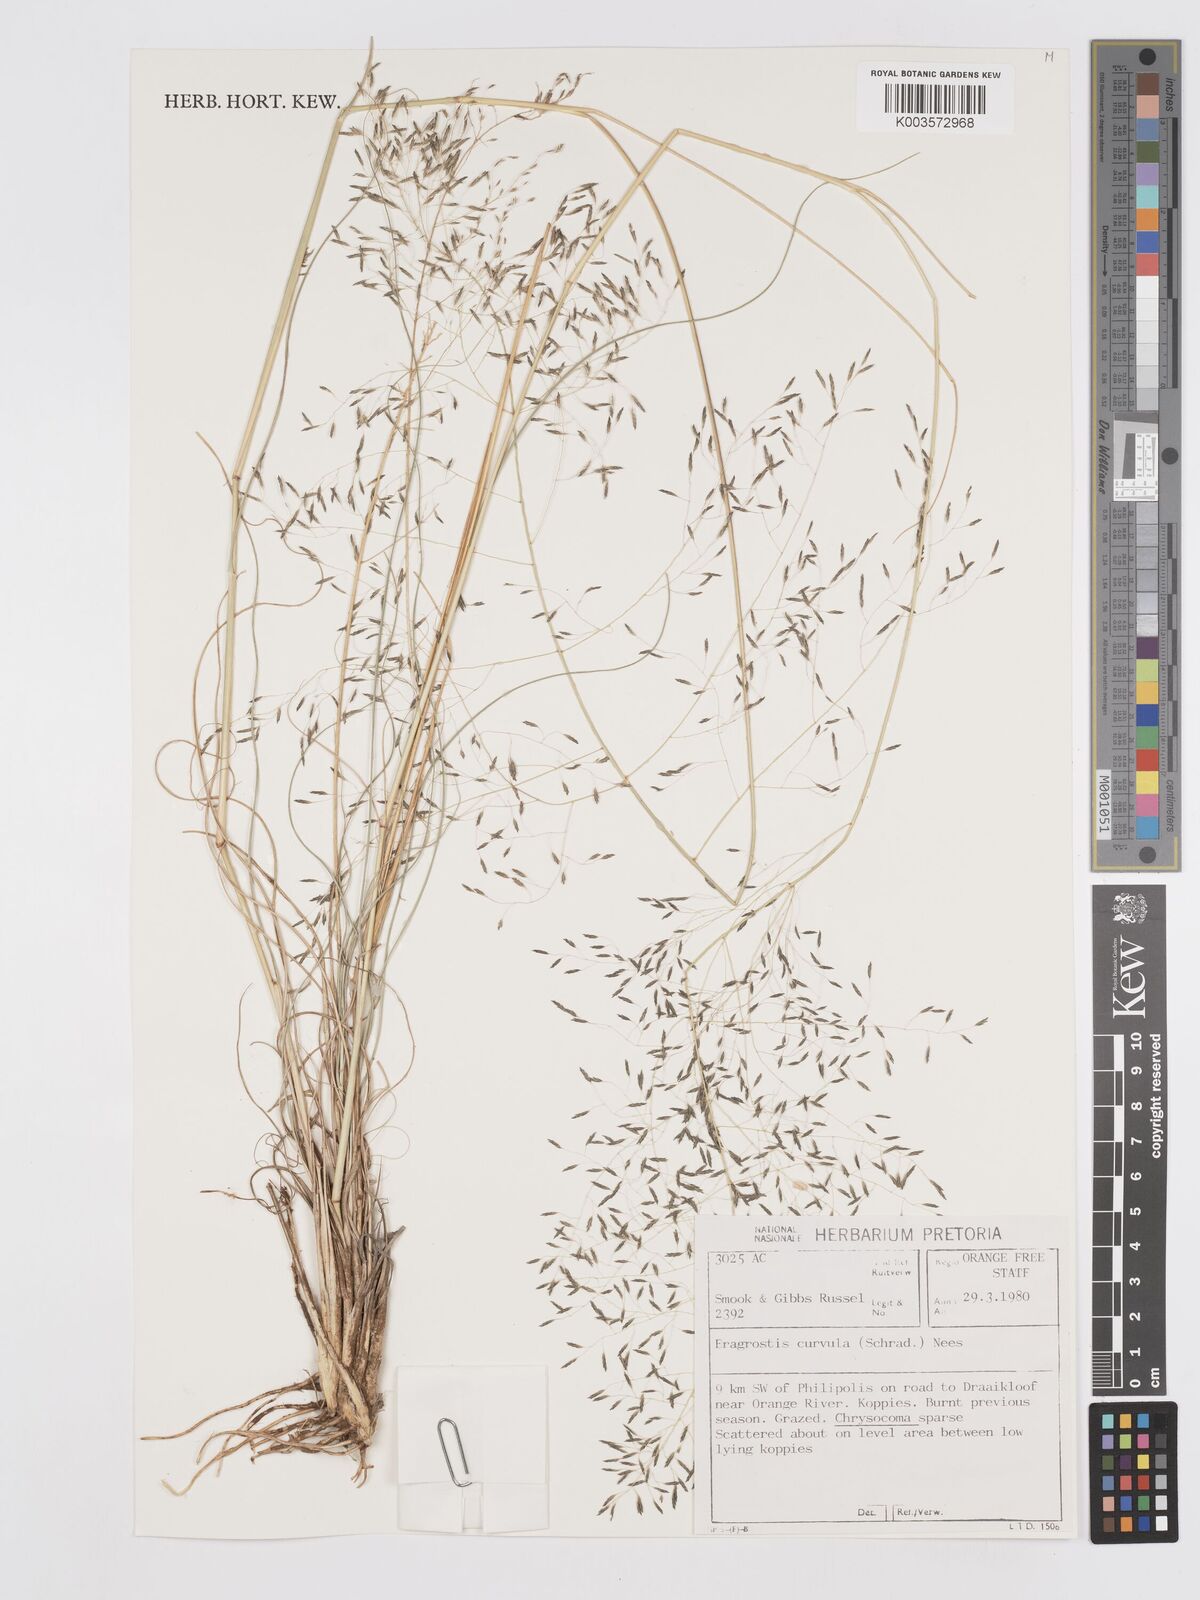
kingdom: Plantae
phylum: Tracheophyta
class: Liliopsida
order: Poales
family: Poaceae
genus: Eragrostis
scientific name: Eragrostis curvula
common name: African love-grass
